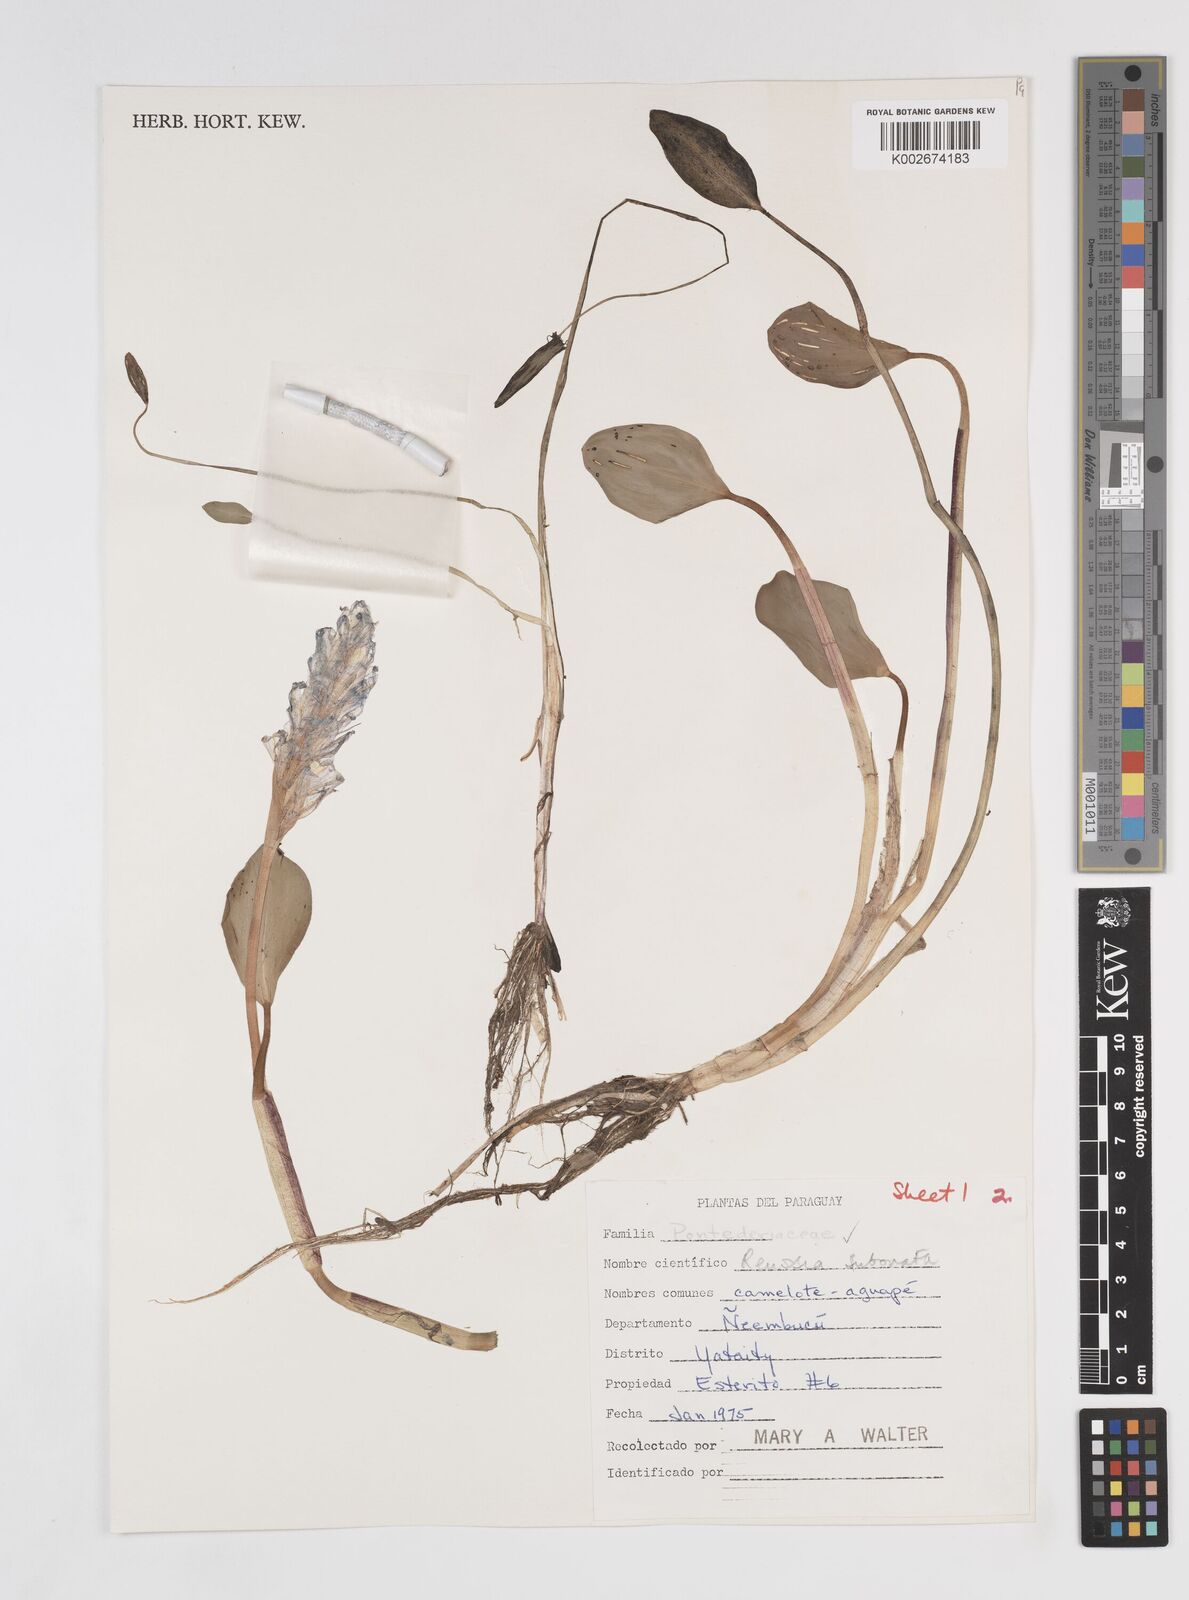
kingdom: Plantae
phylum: Tracheophyta
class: Liliopsida
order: Commelinales
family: Pontederiaceae
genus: Pontederia
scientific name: Pontederia subovata
